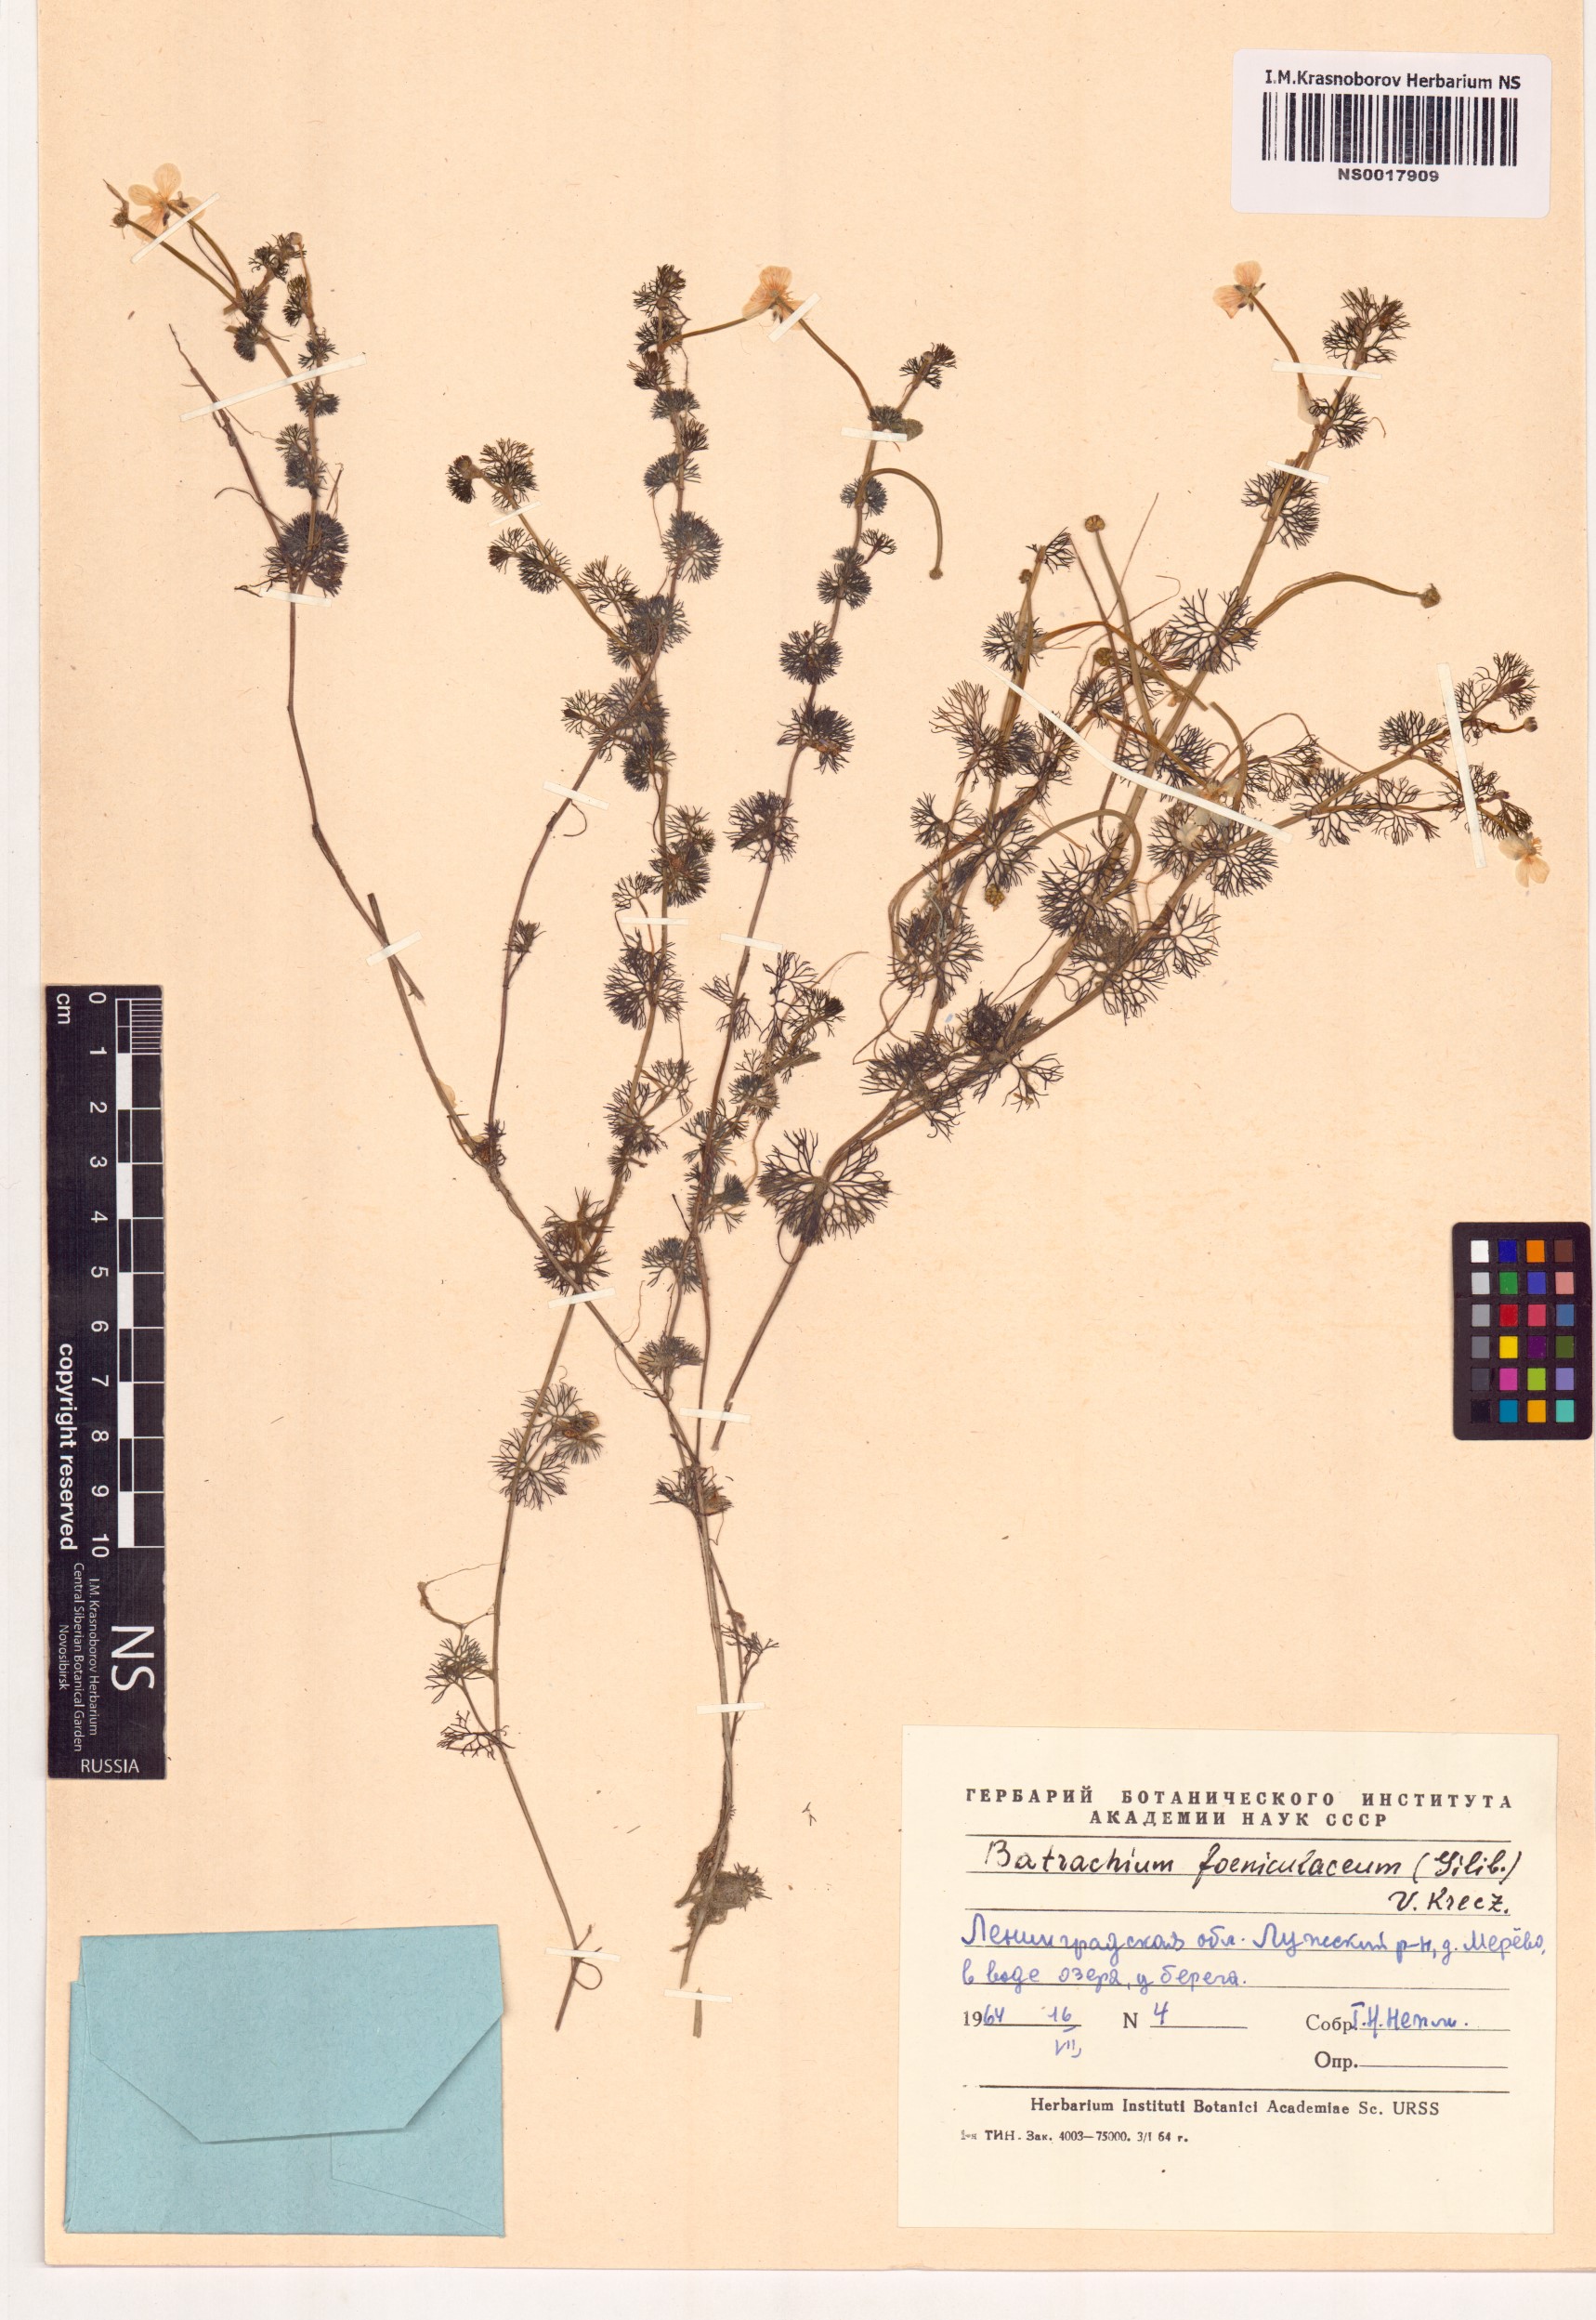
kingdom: Plantae
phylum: Tracheophyta
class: Magnoliopsida
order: Ranunculales
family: Ranunculaceae
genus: Ranunculus
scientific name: Ranunculus circinatus
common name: Fan-leaved water-crowfoot
